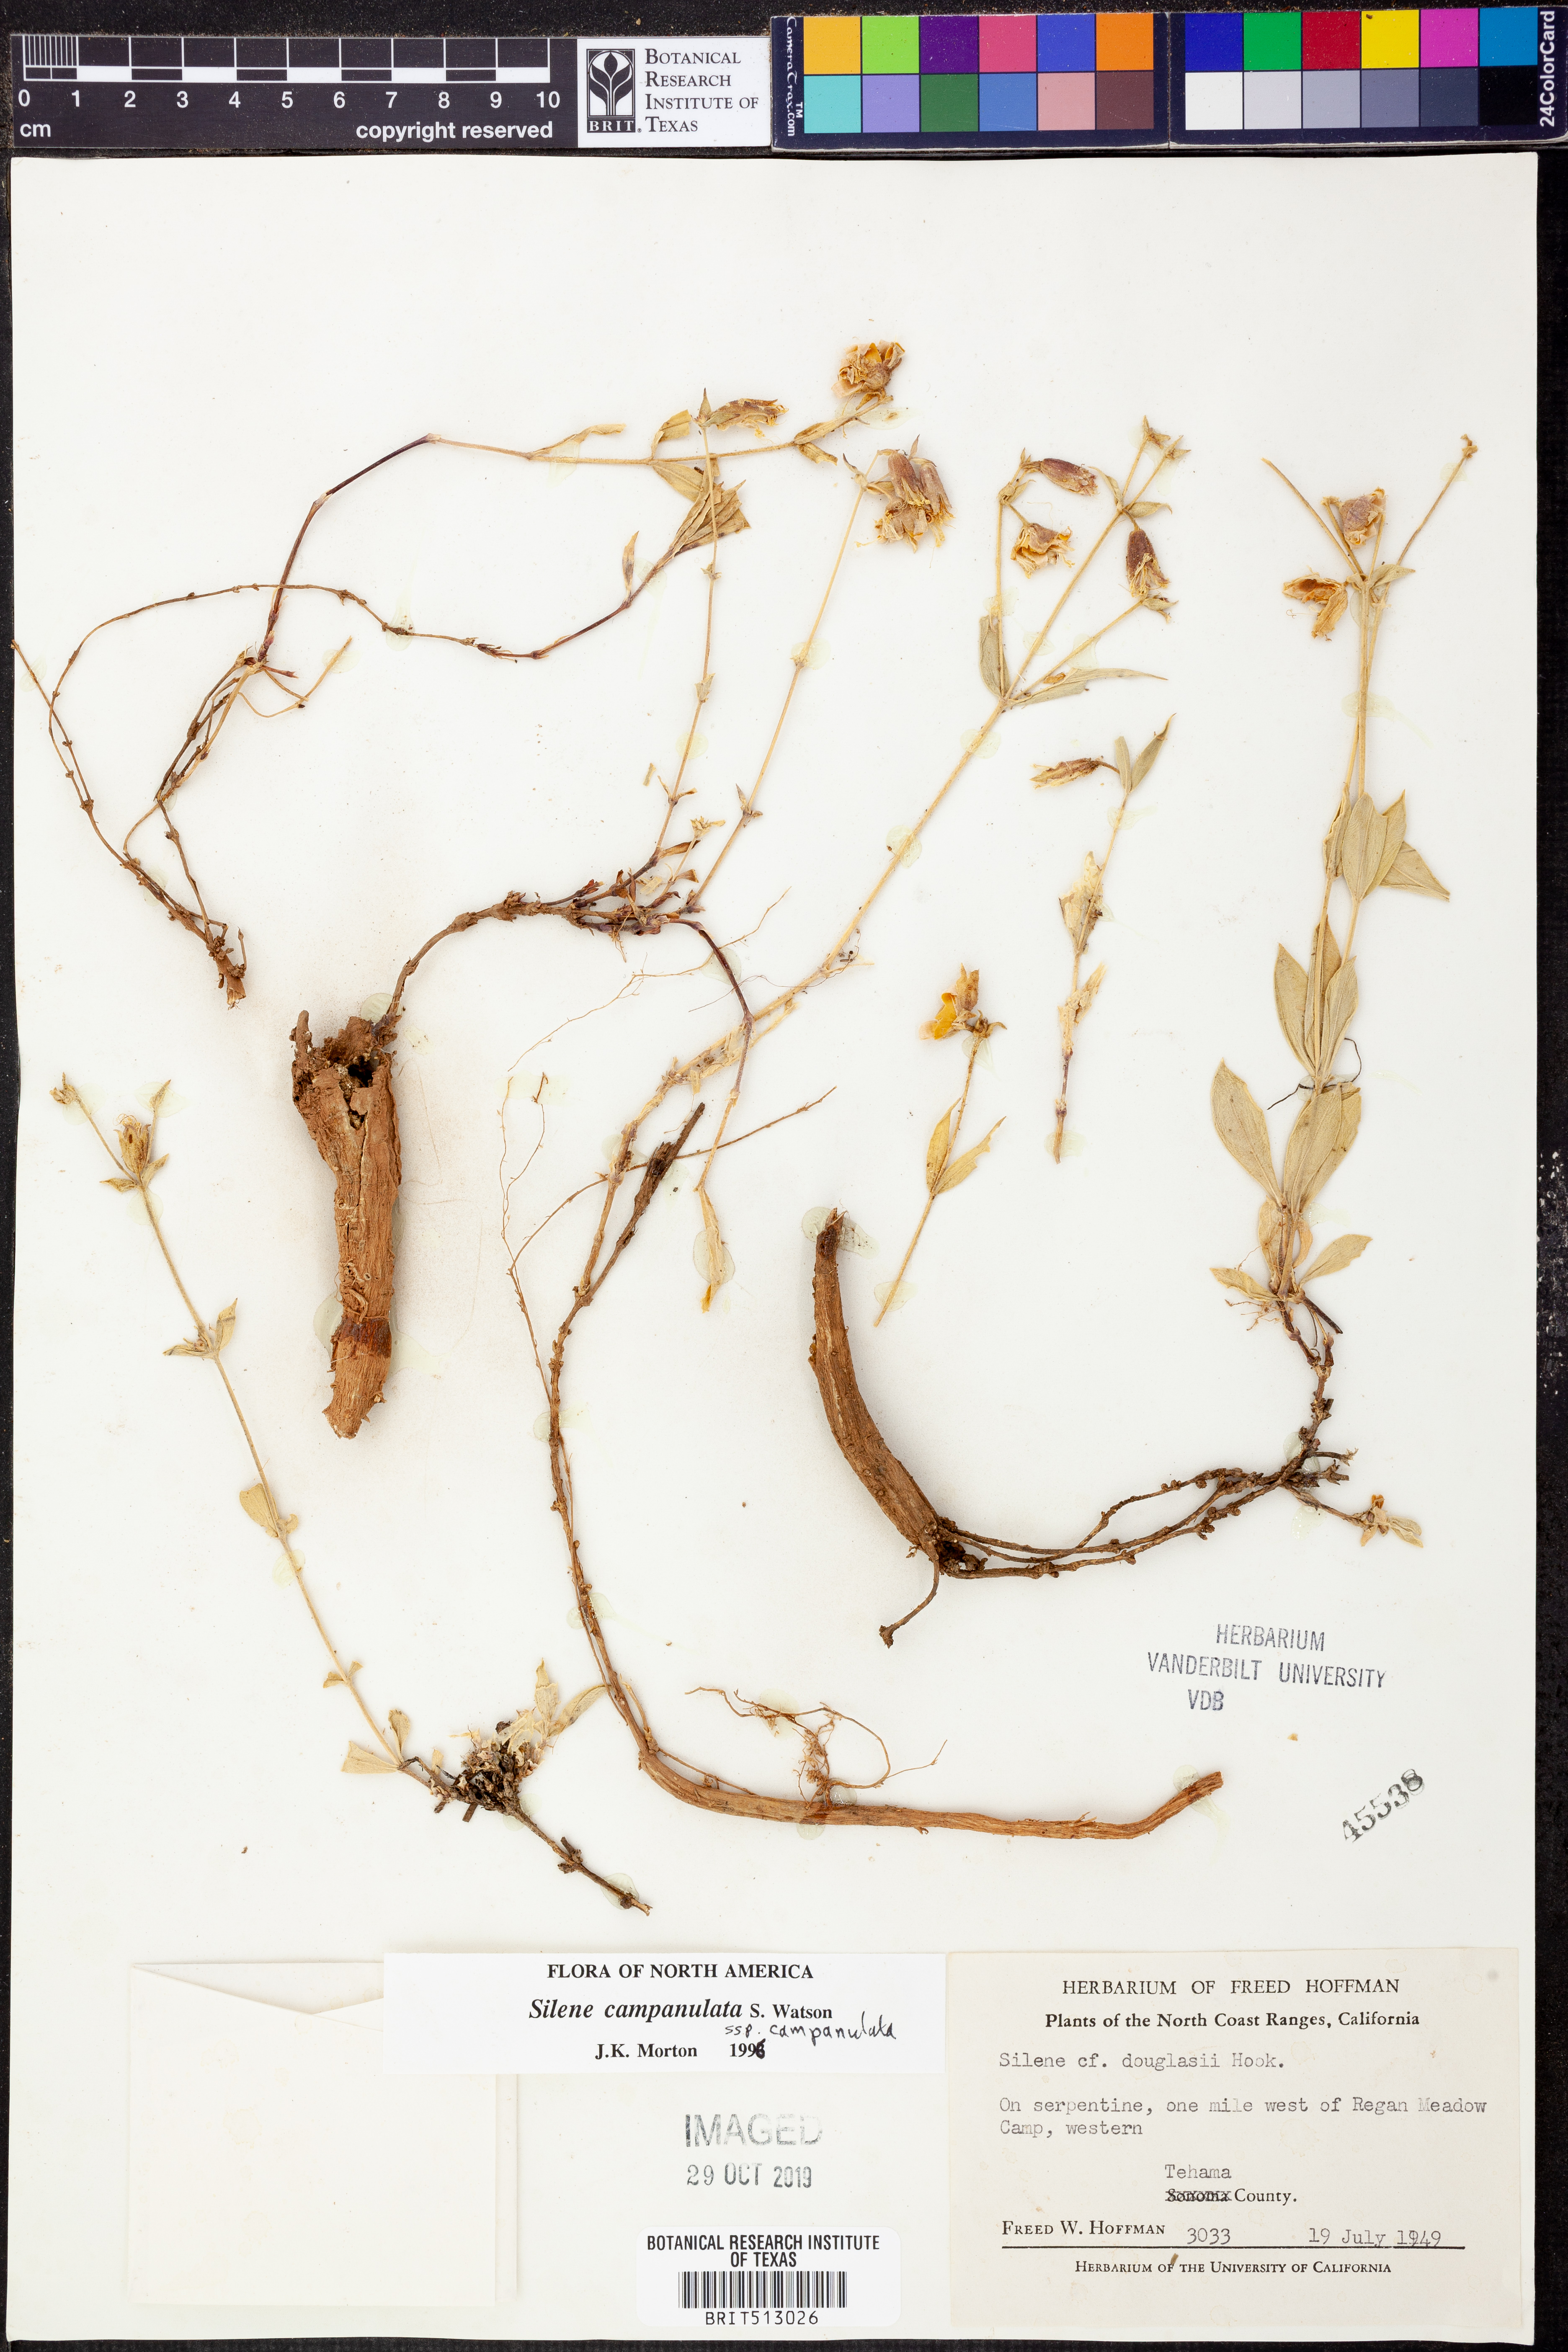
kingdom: Plantae
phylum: Tracheophyta
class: Magnoliopsida
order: Caryophyllales
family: Caryophyllaceae
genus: Silene
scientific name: Silene douglasii
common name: Douglas's catchfly
